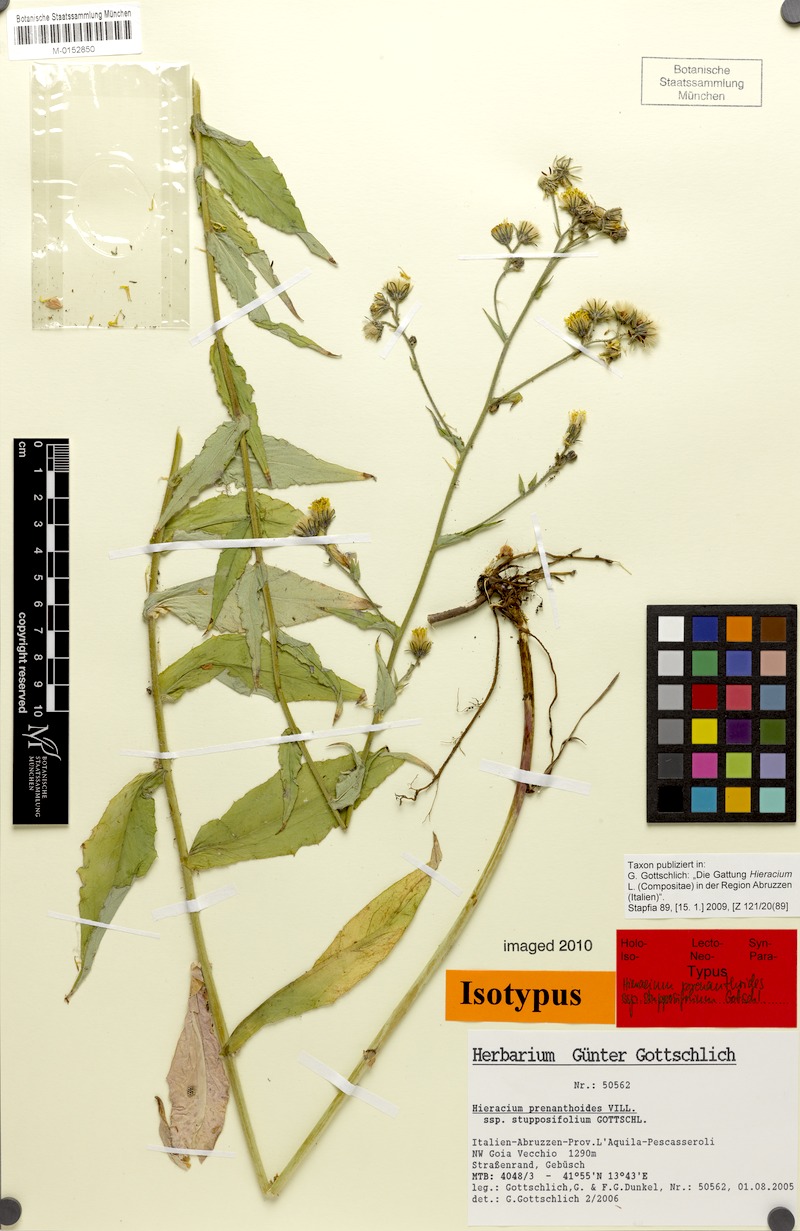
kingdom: Plantae
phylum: Tracheophyta
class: Magnoliopsida
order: Asterales
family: Asteraceae
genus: Hieracium
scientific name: Hieracium prenanthoides
